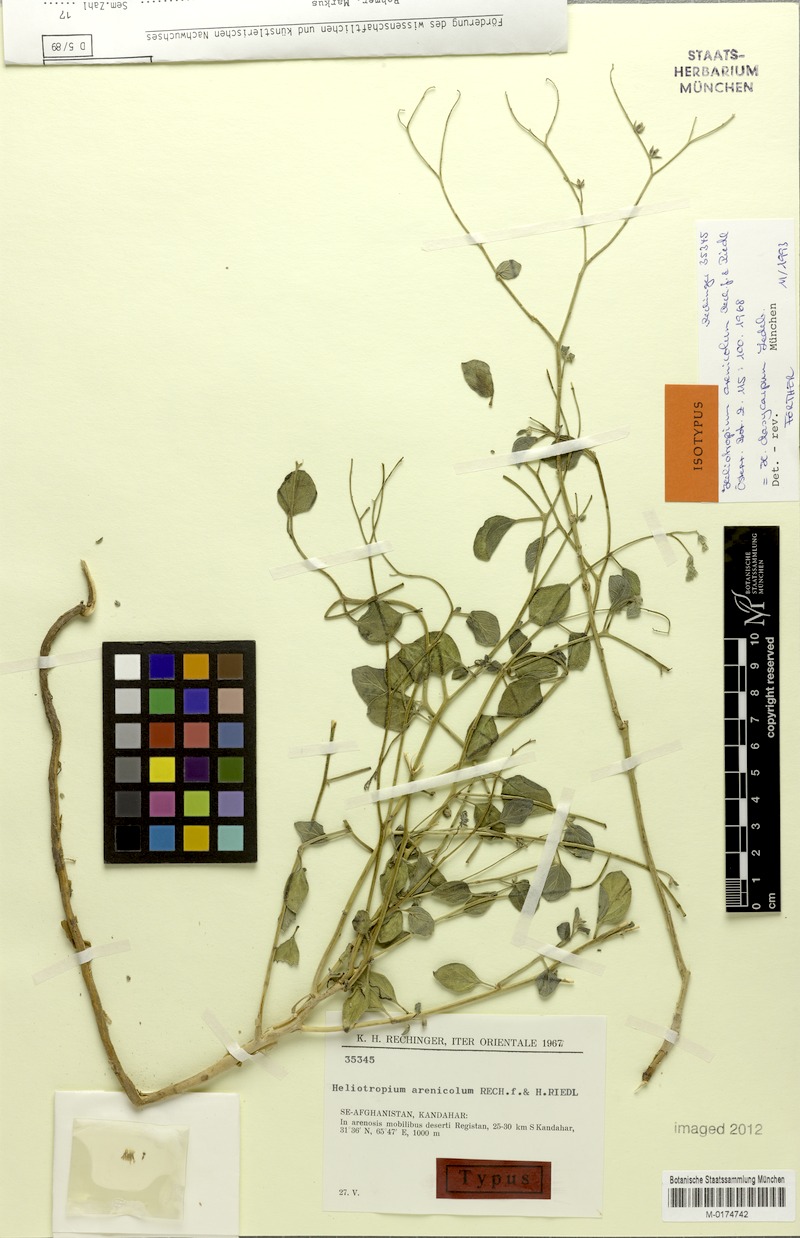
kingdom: Plantae
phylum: Tracheophyta
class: Magnoliopsida
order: Boraginales
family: Heliotropiaceae
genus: Heliotropium
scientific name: Heliotropium dasycarpum
